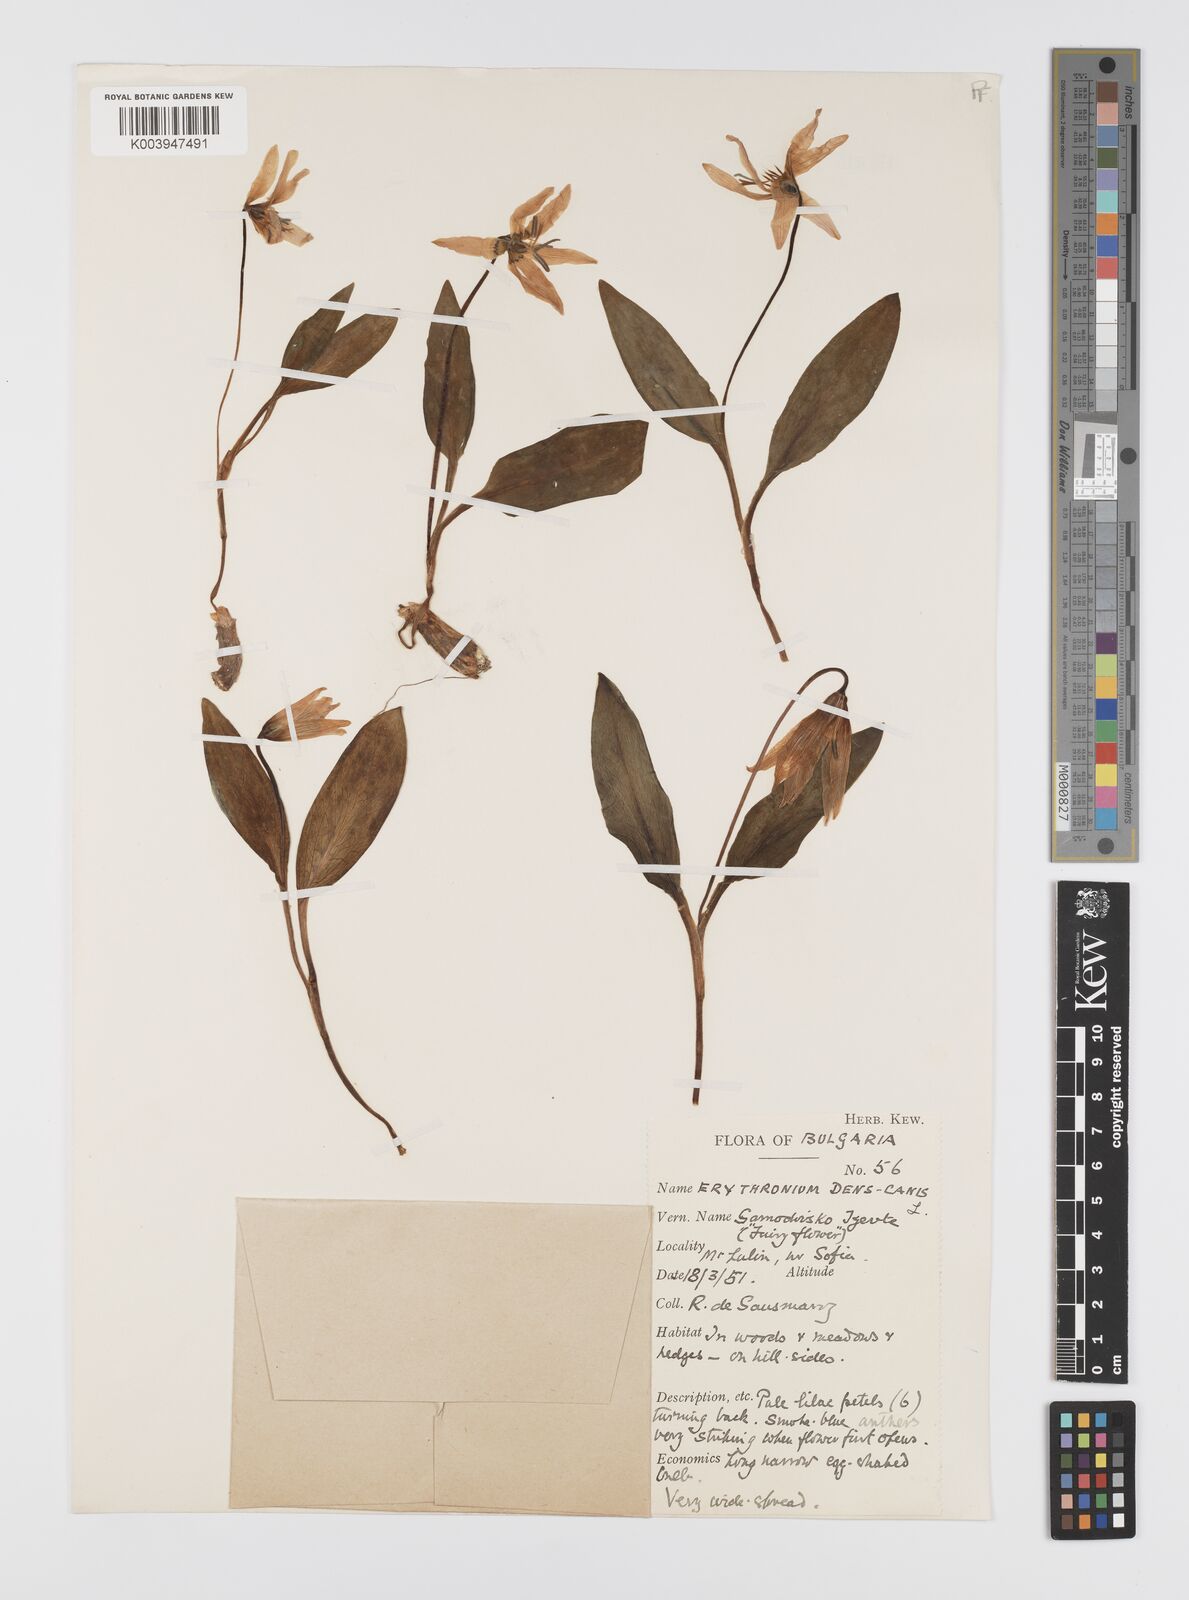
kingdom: Plantae
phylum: Tracheophyta
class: Liliopsida
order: Liliales
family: Liliaceae
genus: Erythronium
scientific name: Erythronium dens-canis
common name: Dog's-tooth-violet
